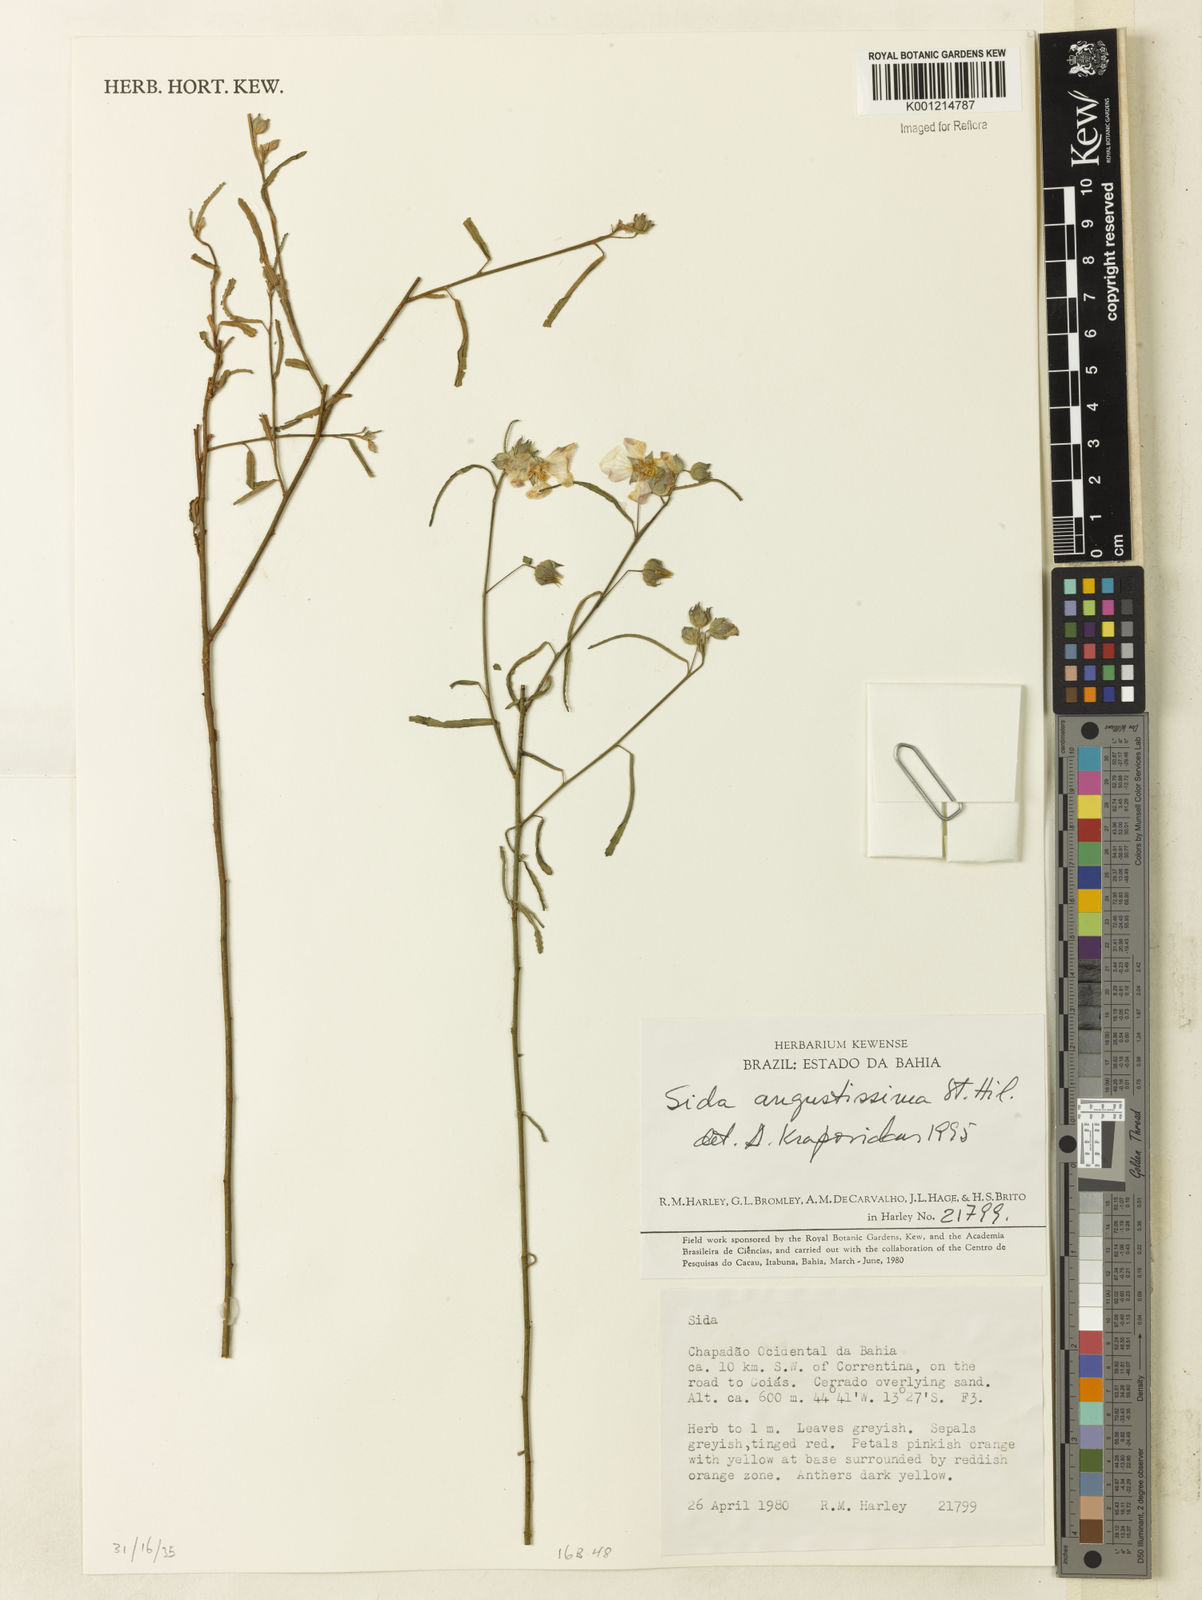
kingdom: Plantae
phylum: Tracheophyta
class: Magnoliopsida
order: Malvales
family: Malvaceae
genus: Sida
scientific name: Sida angustissima
